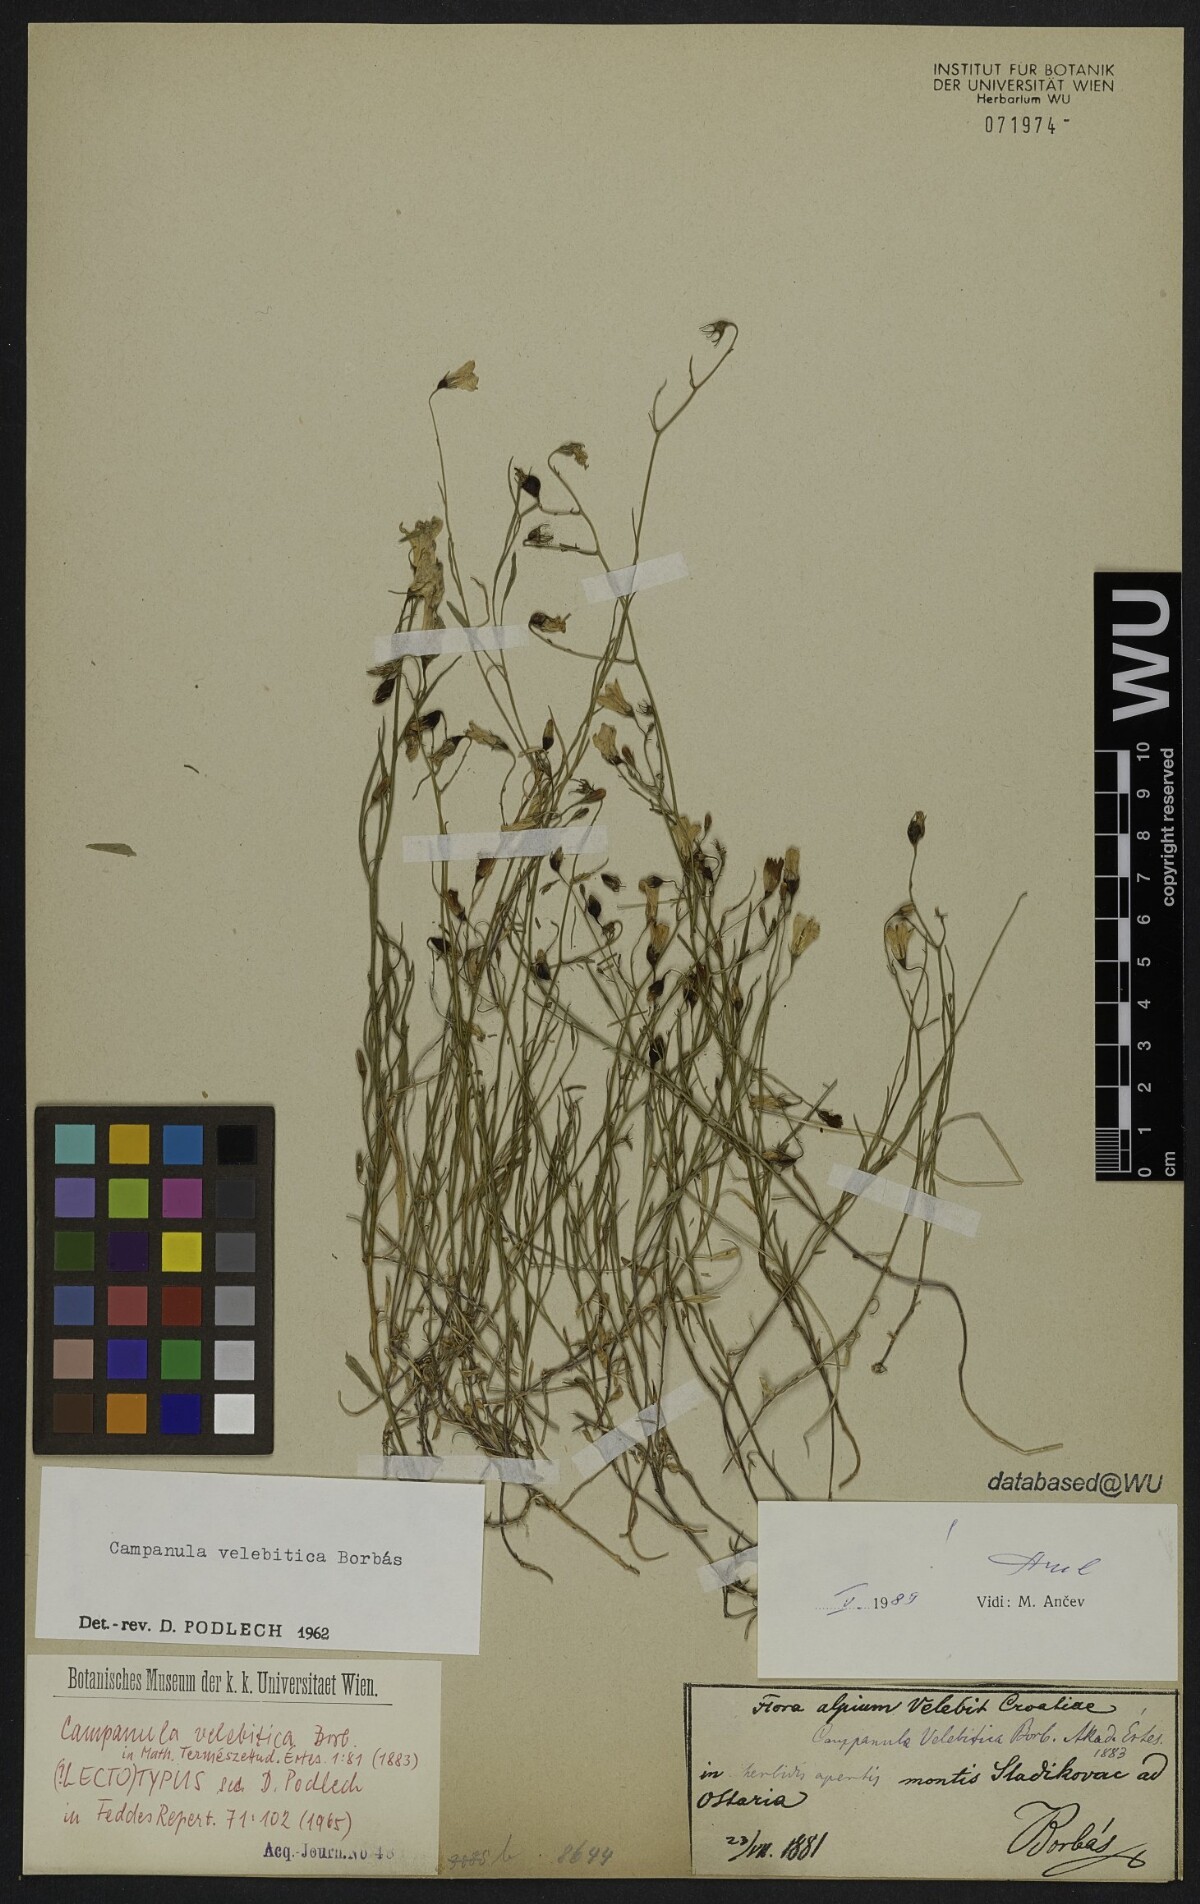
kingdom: Plantae
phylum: Tracheophyta
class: Magnoliopsida
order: Asterales
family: Campanulaceae
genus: Campanula
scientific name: Campanula velebitica
